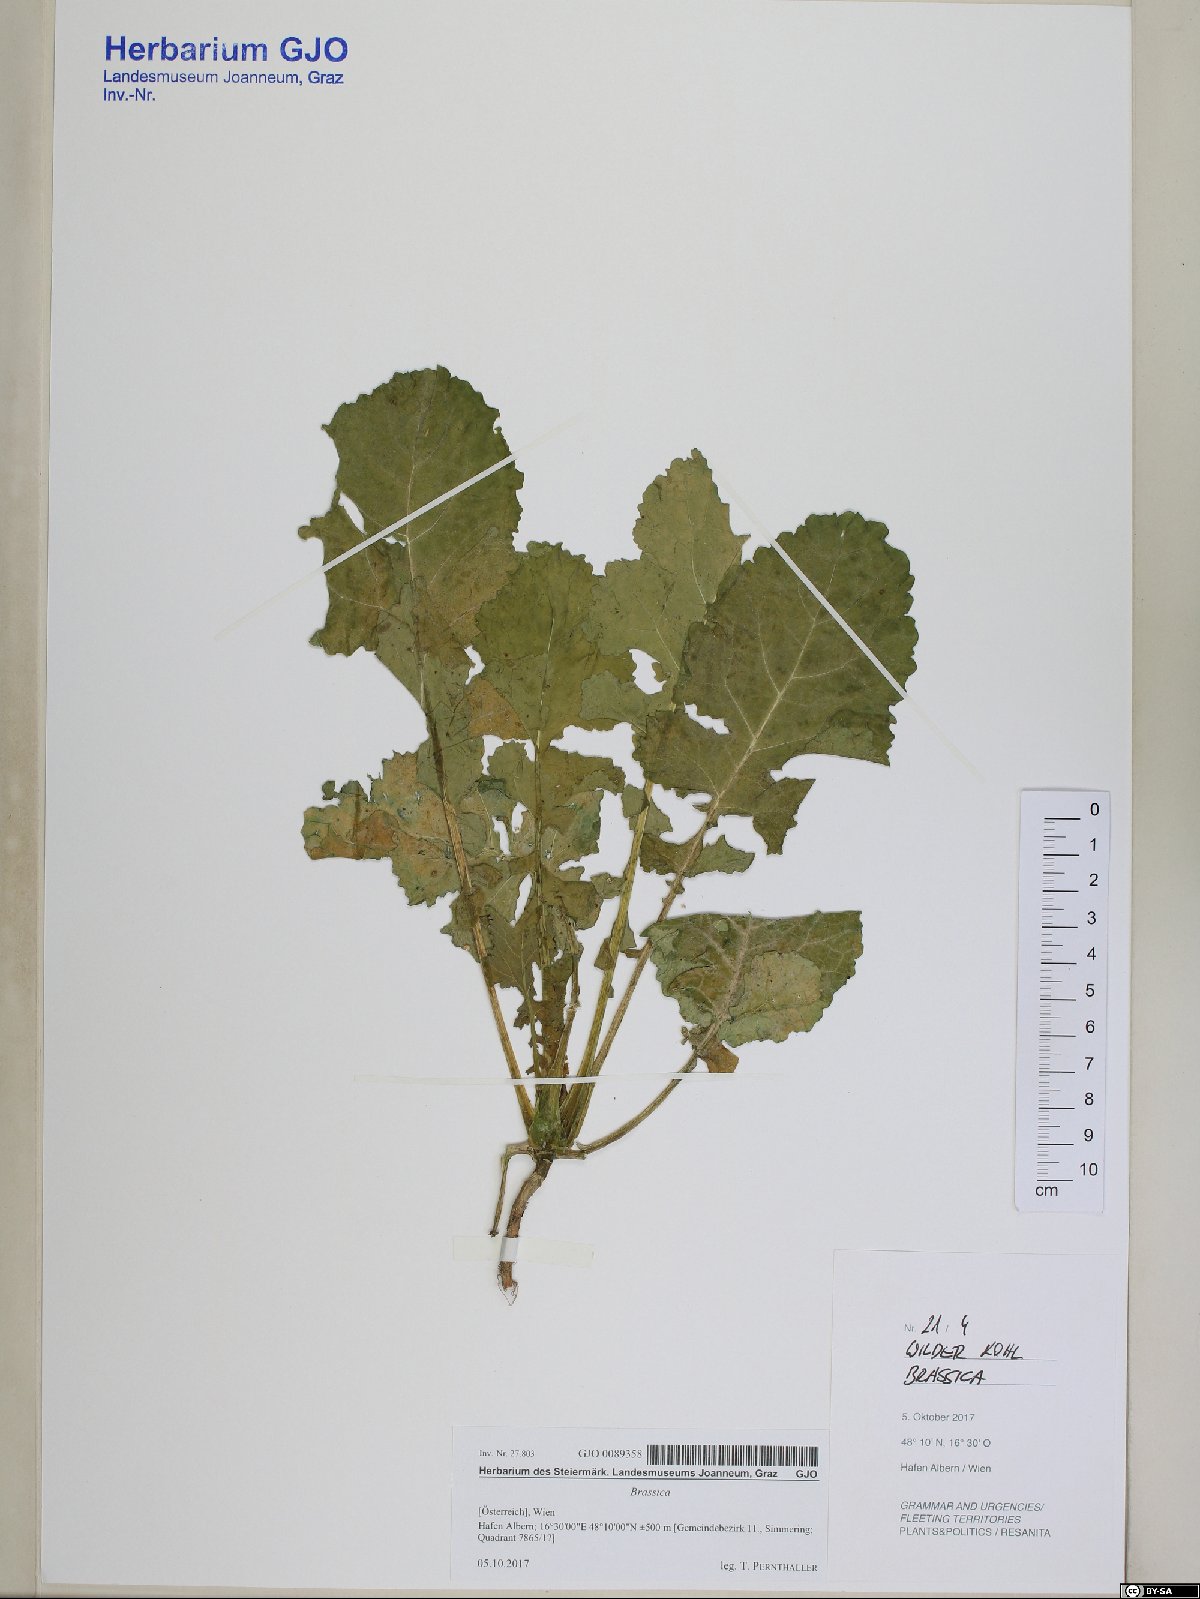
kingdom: Plantae
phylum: Tracheophyta
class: Magnoliopsida
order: Brassicales
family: Brassicaceae
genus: Brassica
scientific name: Brassica
